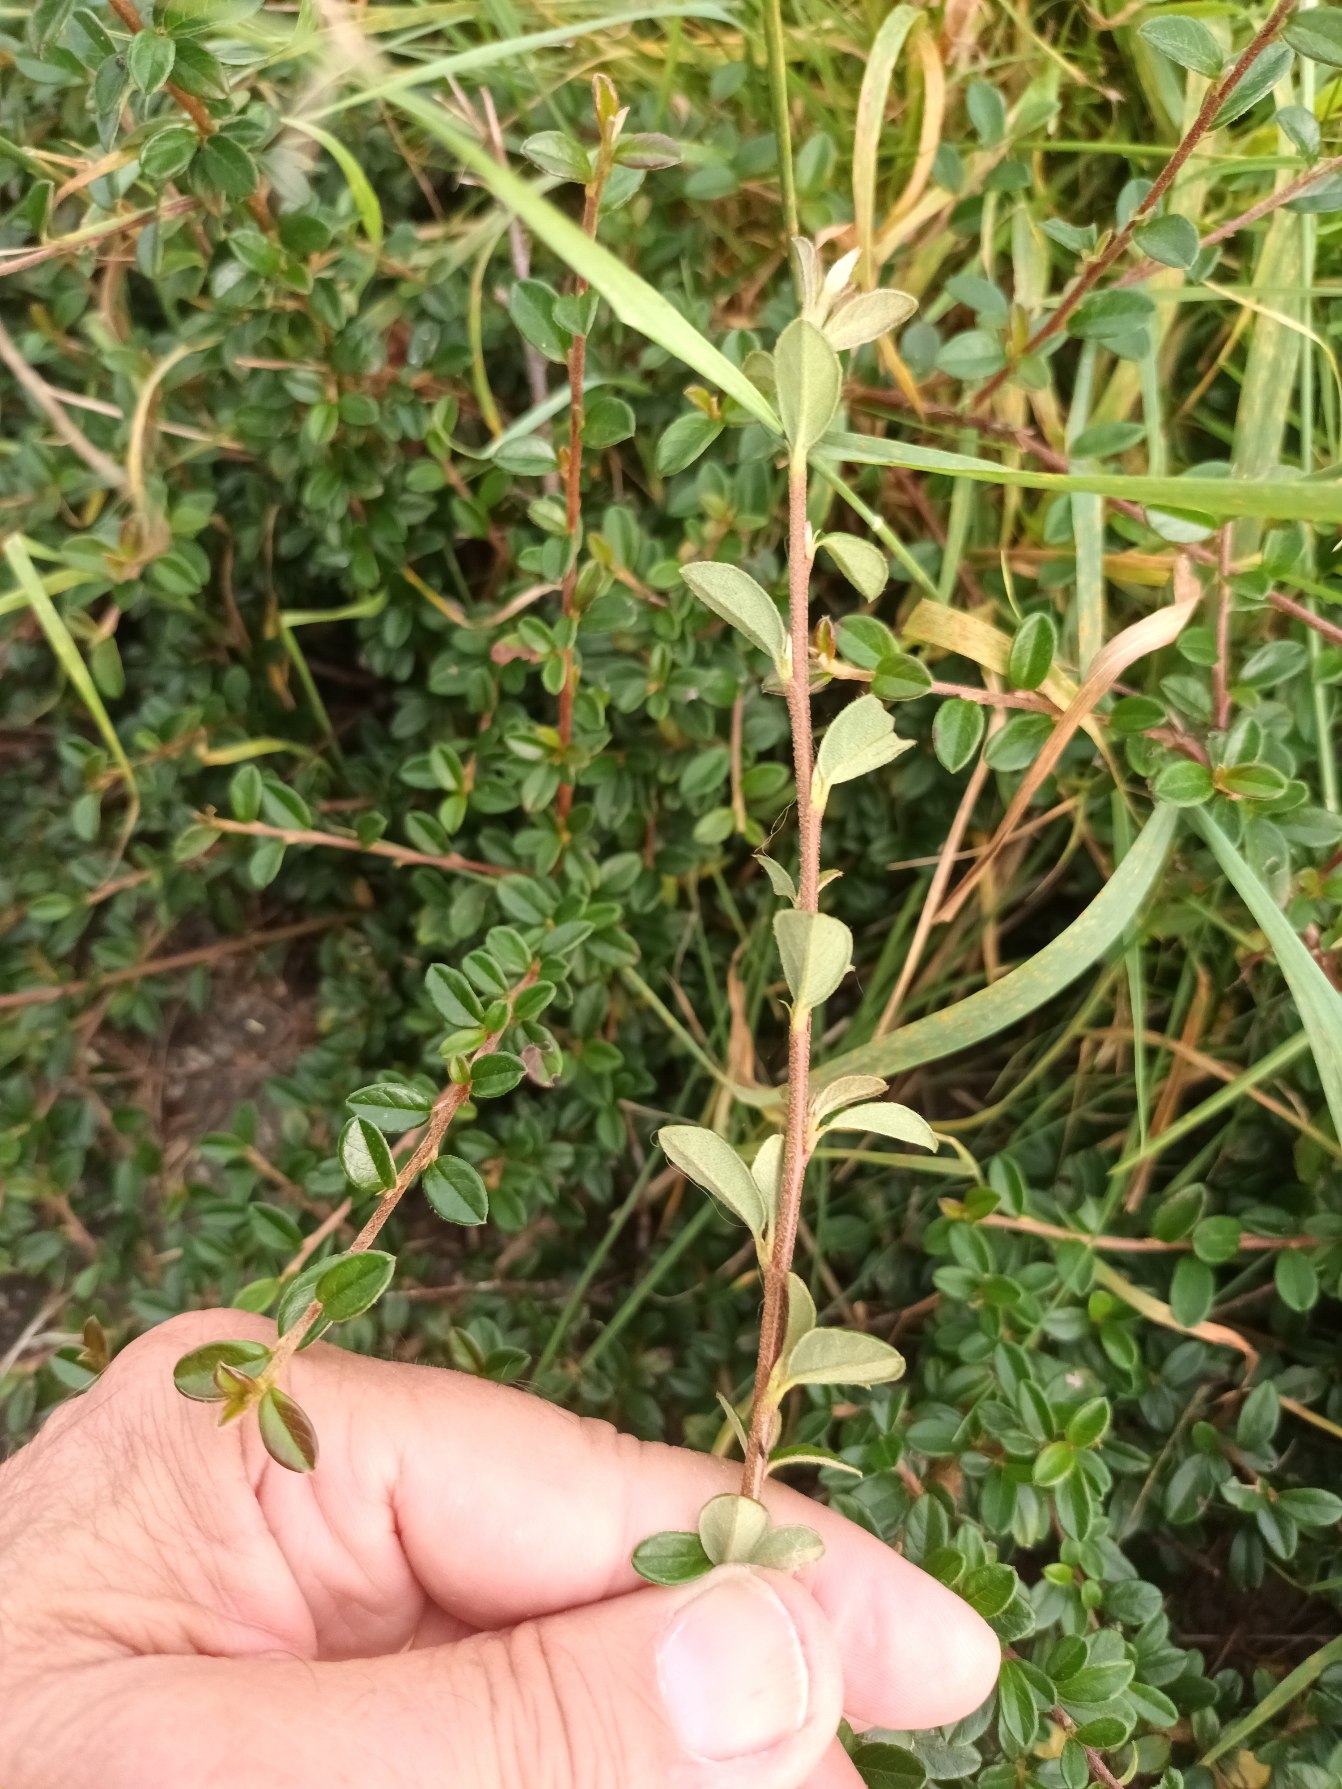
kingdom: Plantae
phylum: Tracheophyta
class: Magnoliopsida
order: Rosales
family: Rosaceae
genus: Cotoneaster
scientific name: Cotoneaster microphyllus
